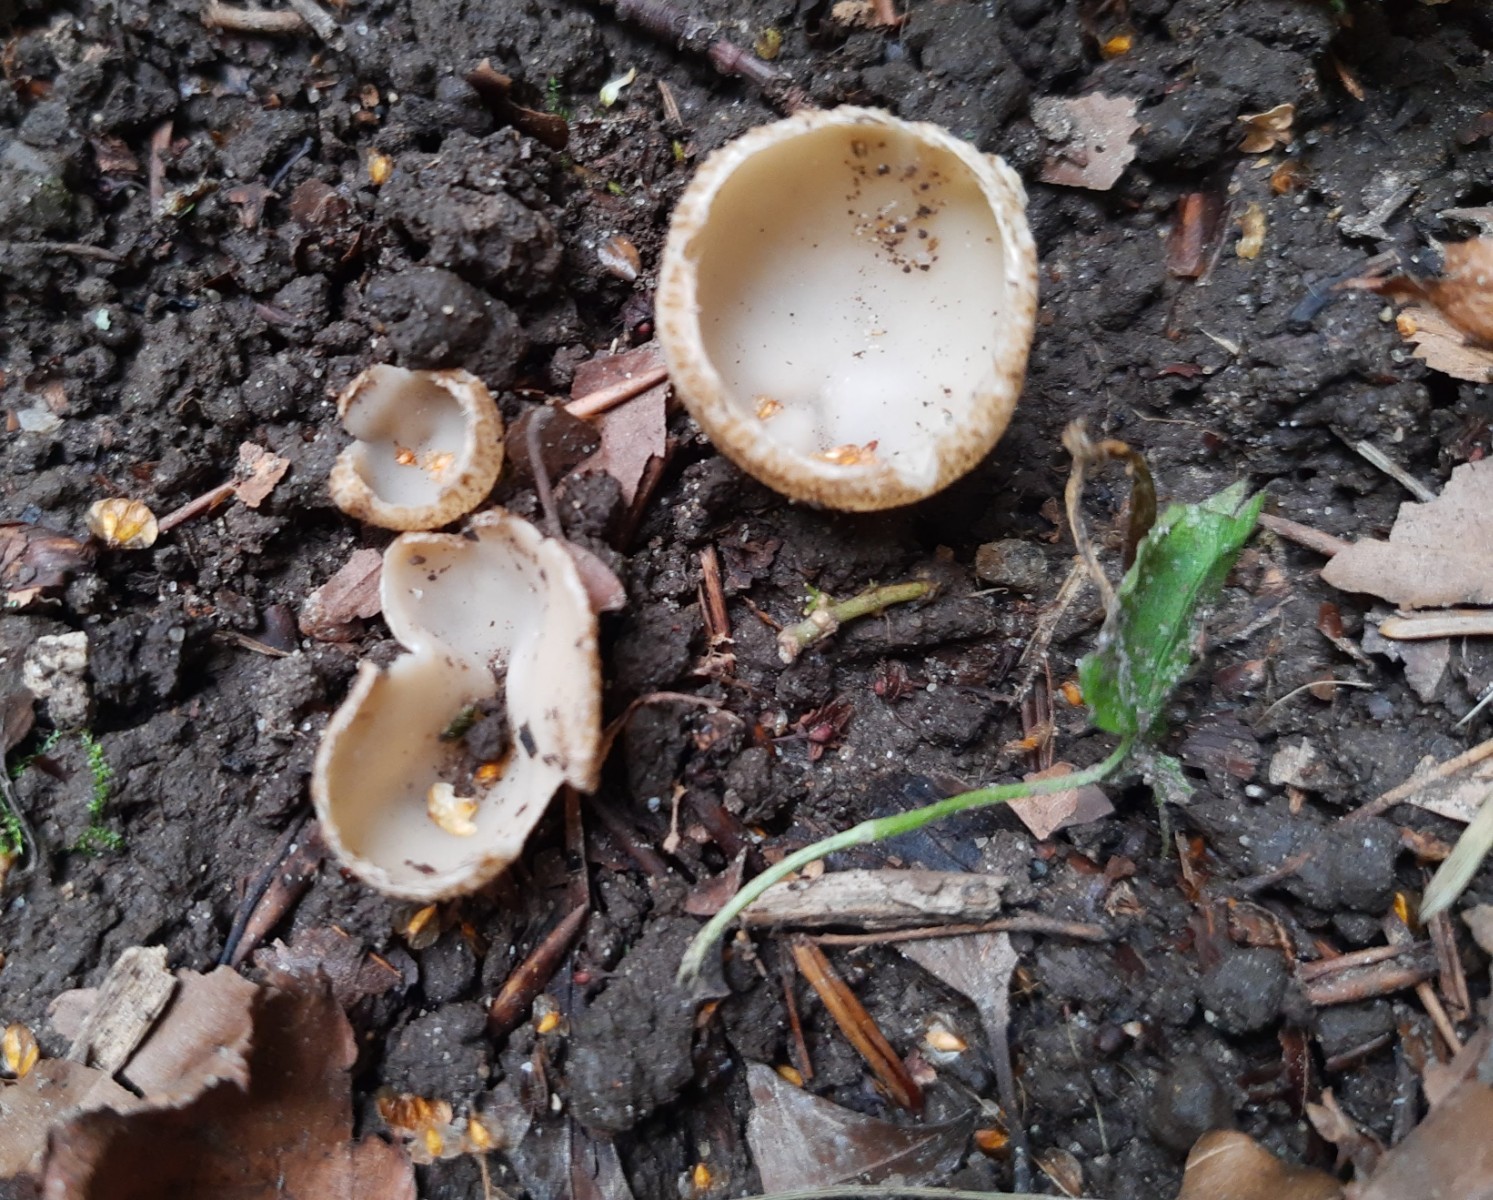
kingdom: Fungi
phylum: Ascomycota
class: Pezizomycetes
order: Pezizales
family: Pyronemataceae
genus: Tarzetta
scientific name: Tarzetta cupularis
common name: gulbrun pokalbæger
